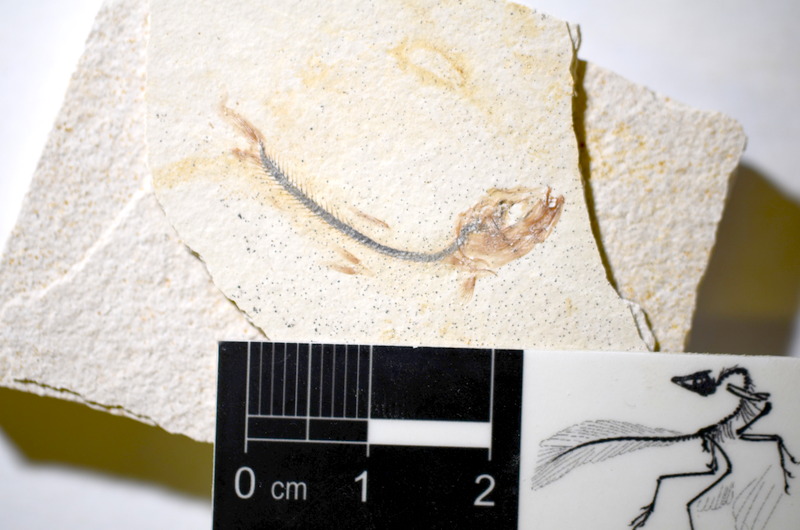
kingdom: Animalia
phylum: Chordata
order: Salmoniformes
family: Orthogonikleithridae
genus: Orthogonikleithrus
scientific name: Orthogonikleithrus hoelli
